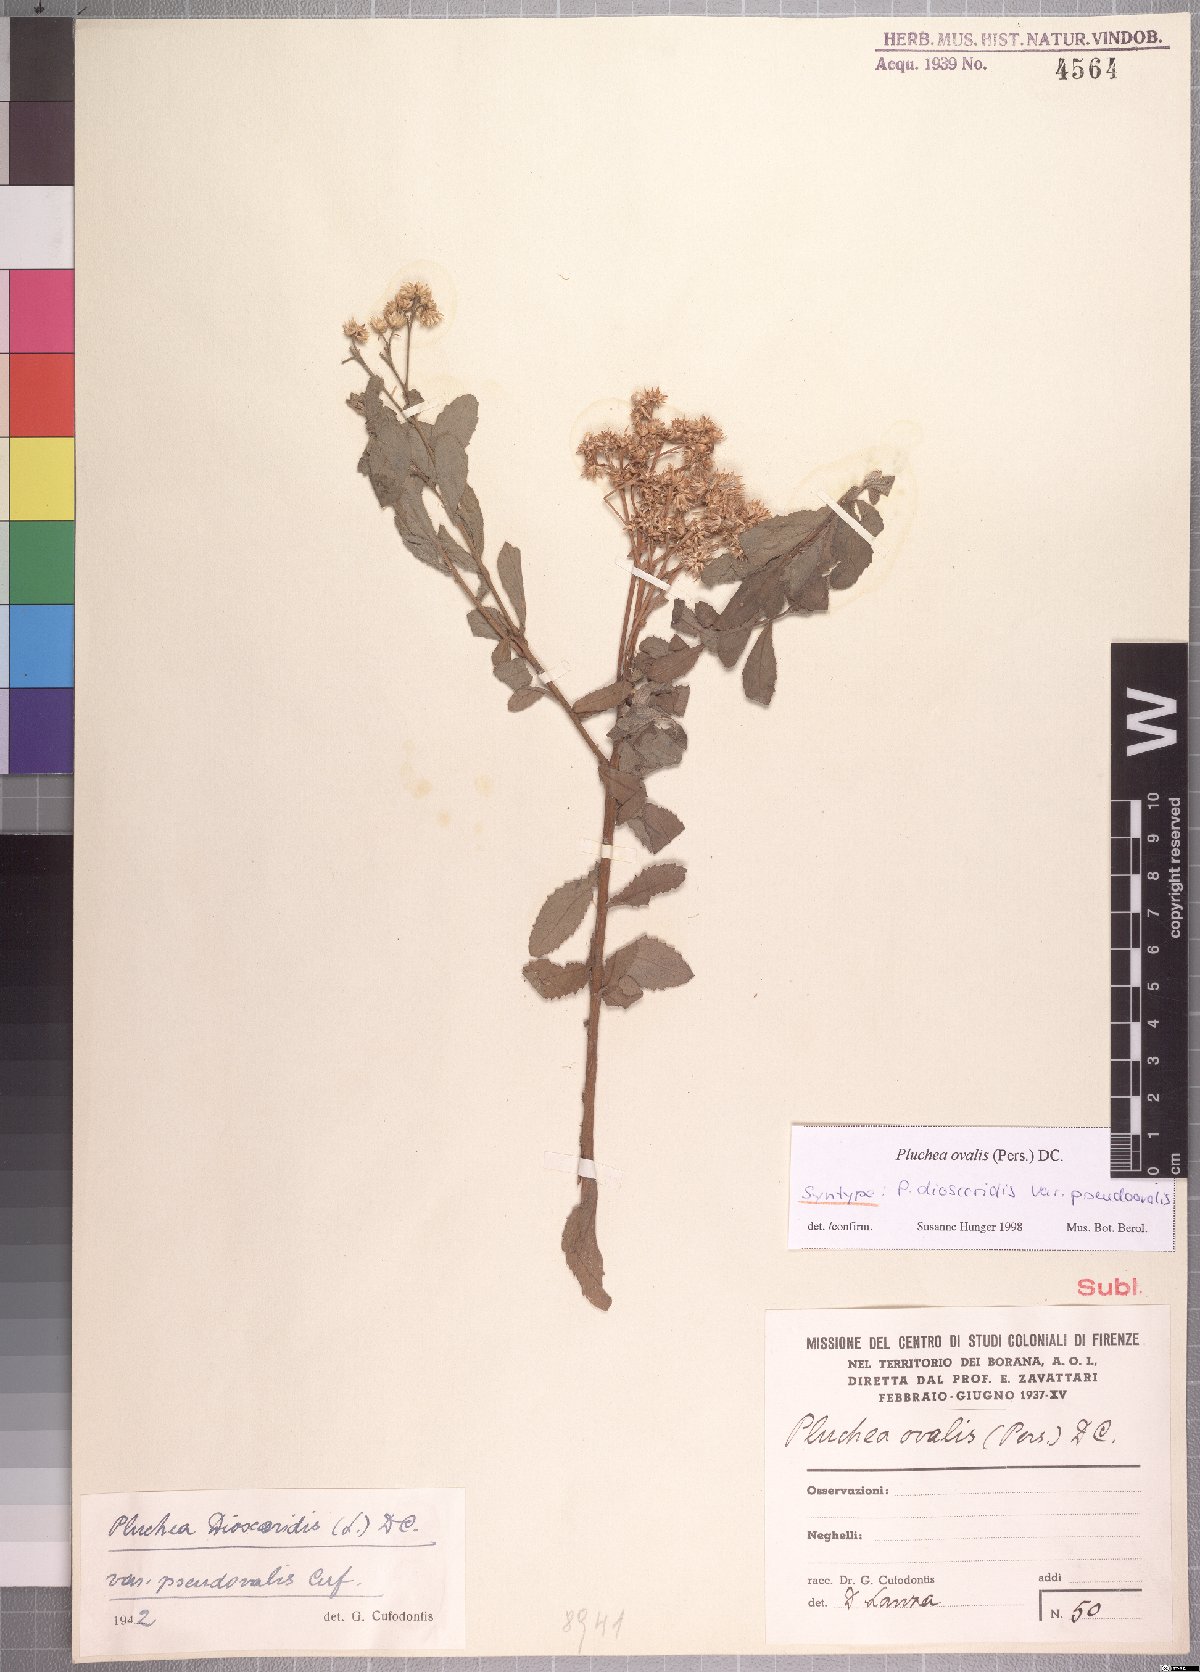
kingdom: Plantae
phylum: Tracheophyta
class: Magnoliopsida
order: Asterales
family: Asteraceae
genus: Pluchea
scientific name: Pluchea ovalis
